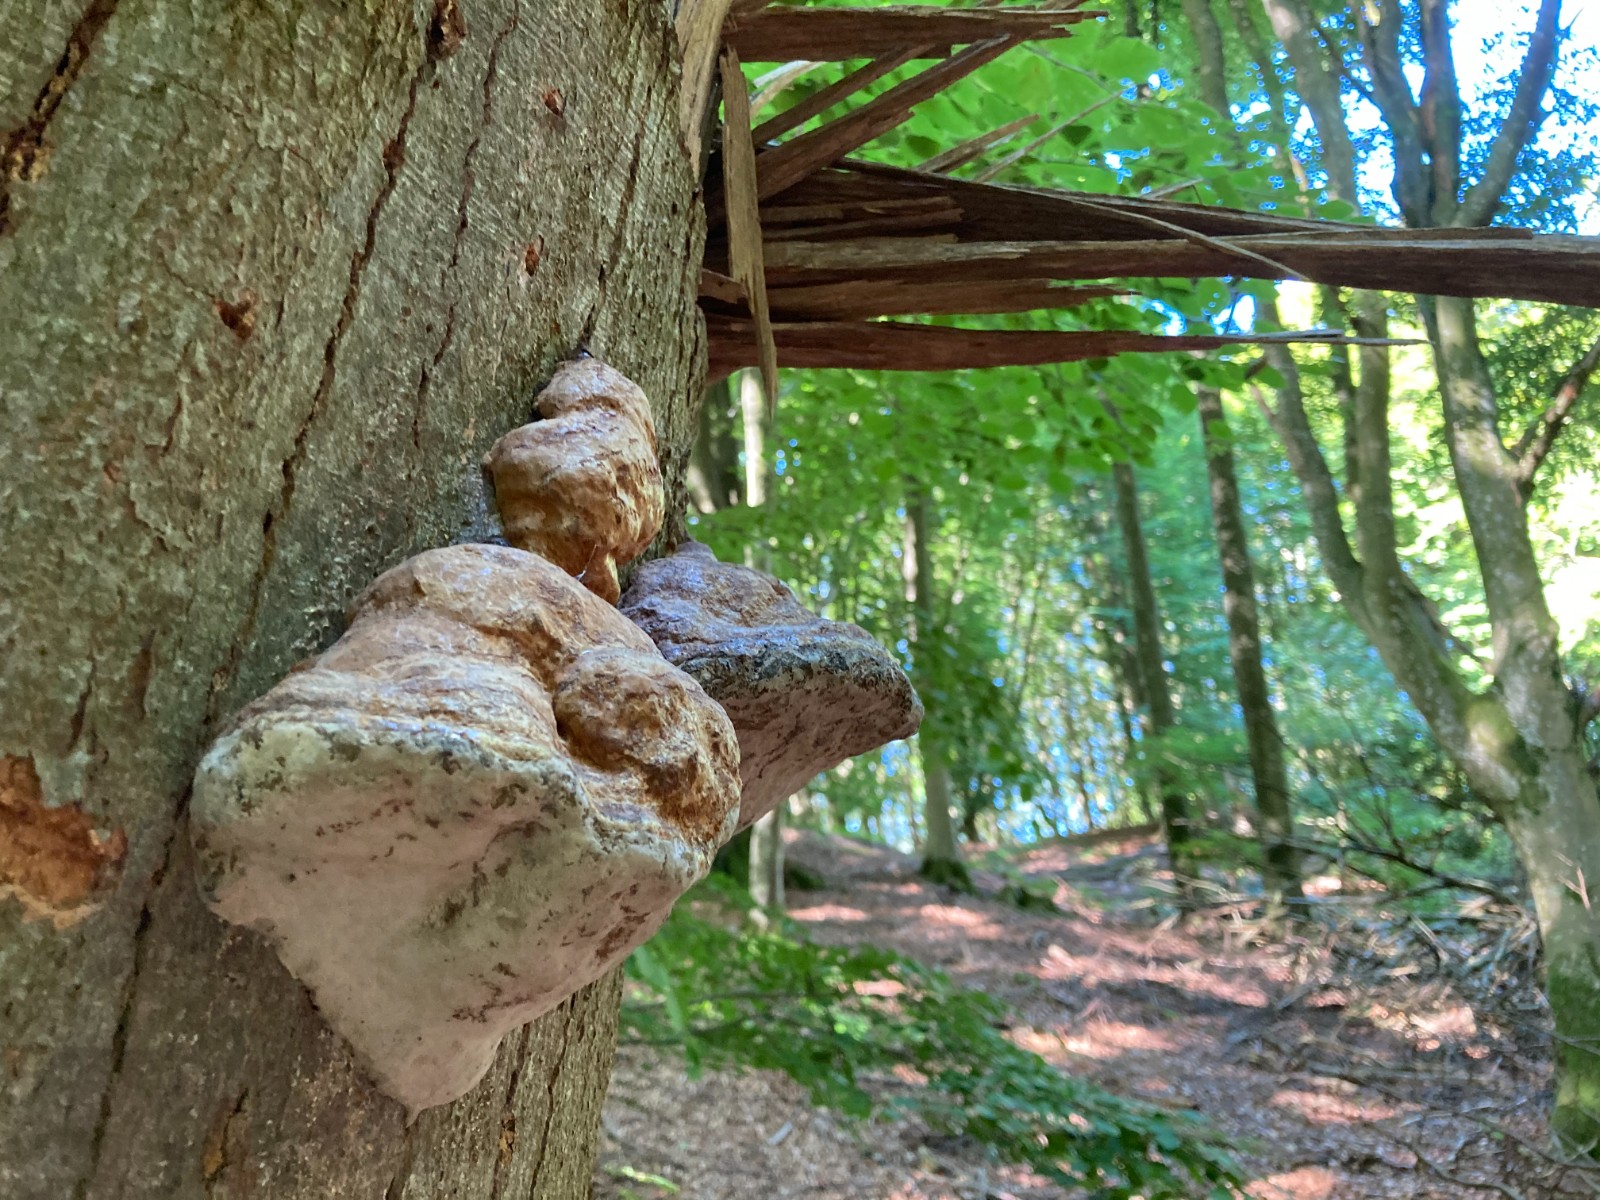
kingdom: Fungi
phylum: Basidiomycota
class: Agaricomycetes
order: Polyporales
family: Polyporaceae
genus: Fomes
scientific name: Fomes fomentarius
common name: tøndersvamp
